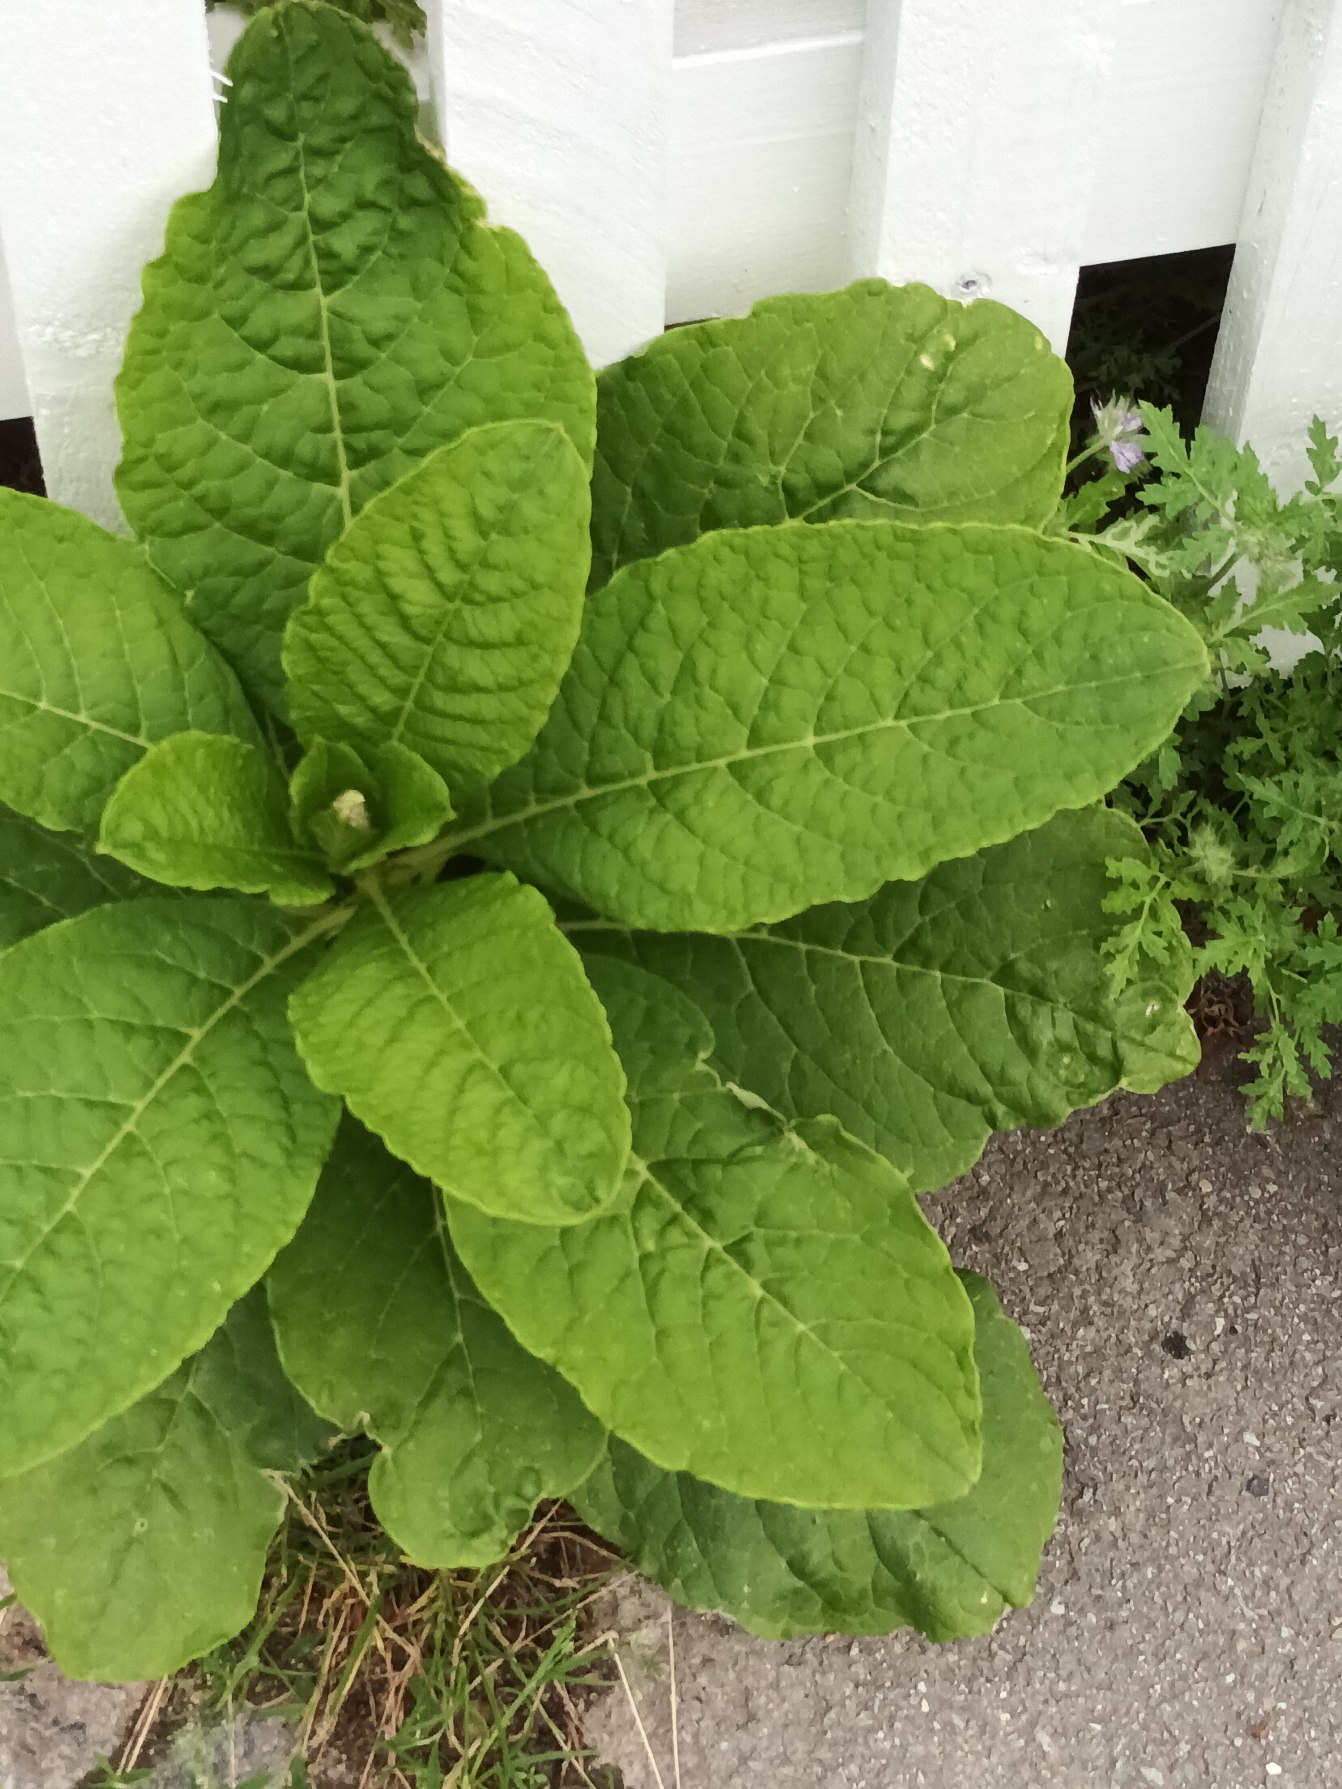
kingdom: Plantae
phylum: Tracheophyta
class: Magnoliopsida
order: Caryophyllales
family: Phytolaccaceae
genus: Phytolacca
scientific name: Phytolacca acinosa
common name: Asiatisk kermesbær
